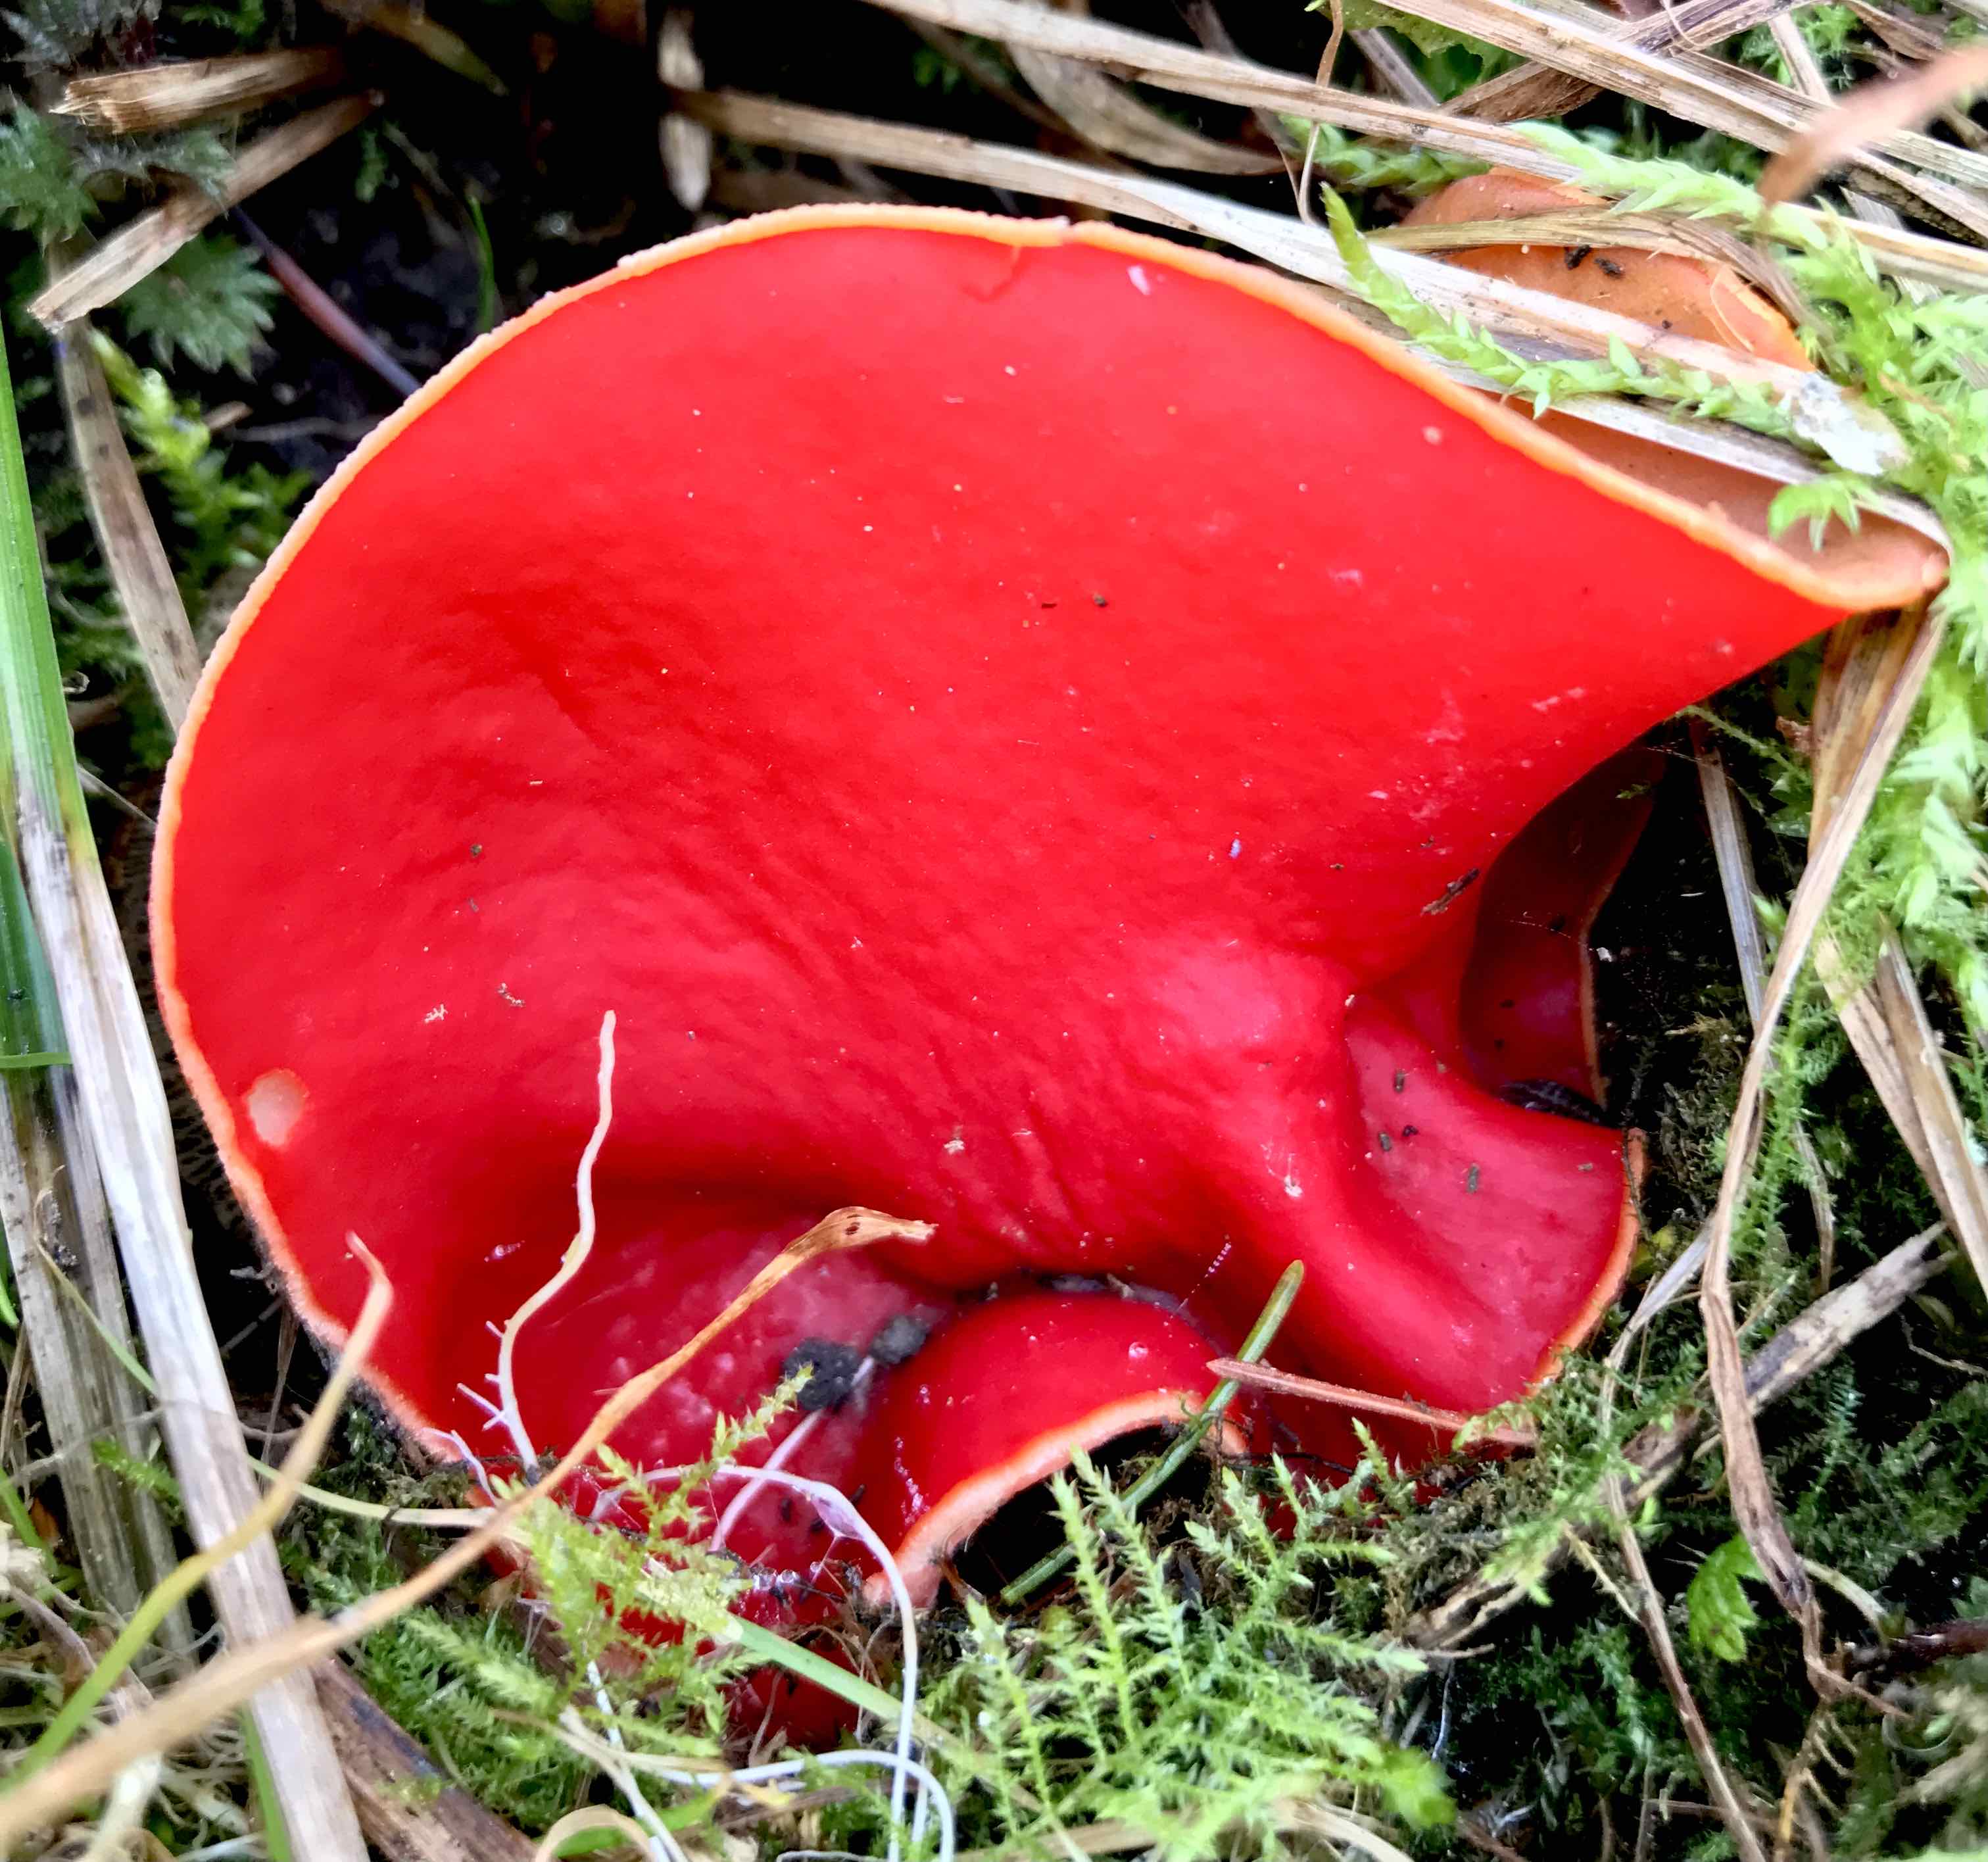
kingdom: Fungi
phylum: Ascomycota
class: Pezizomycetes
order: Pezizales
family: Sarcoscyphaceae
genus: Sarcoscypha
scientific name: Sarcoscypha austriaca
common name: krølhåret pragtbæger
